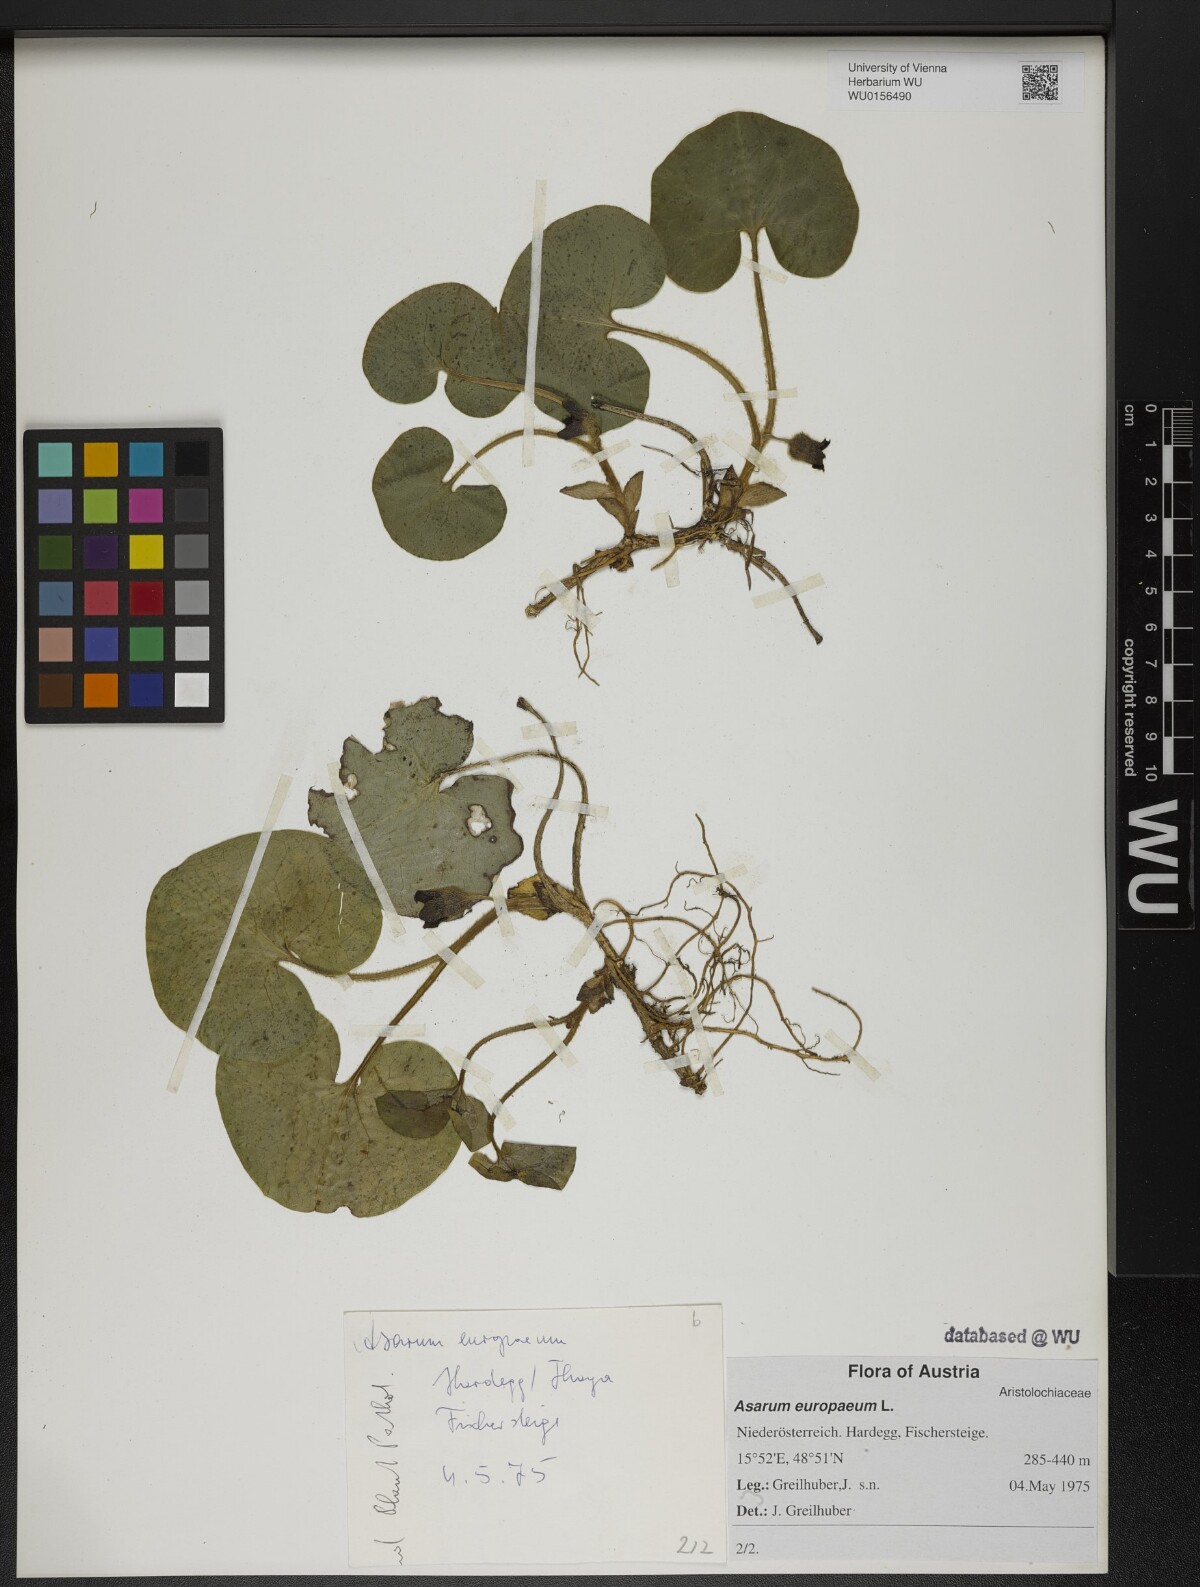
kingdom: Plantae
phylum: Tracheophyta
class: Magnoliopsida
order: Piperales
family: Aristolochiaceae
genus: Asarum
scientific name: Asarum europaeum
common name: Asarabacca
